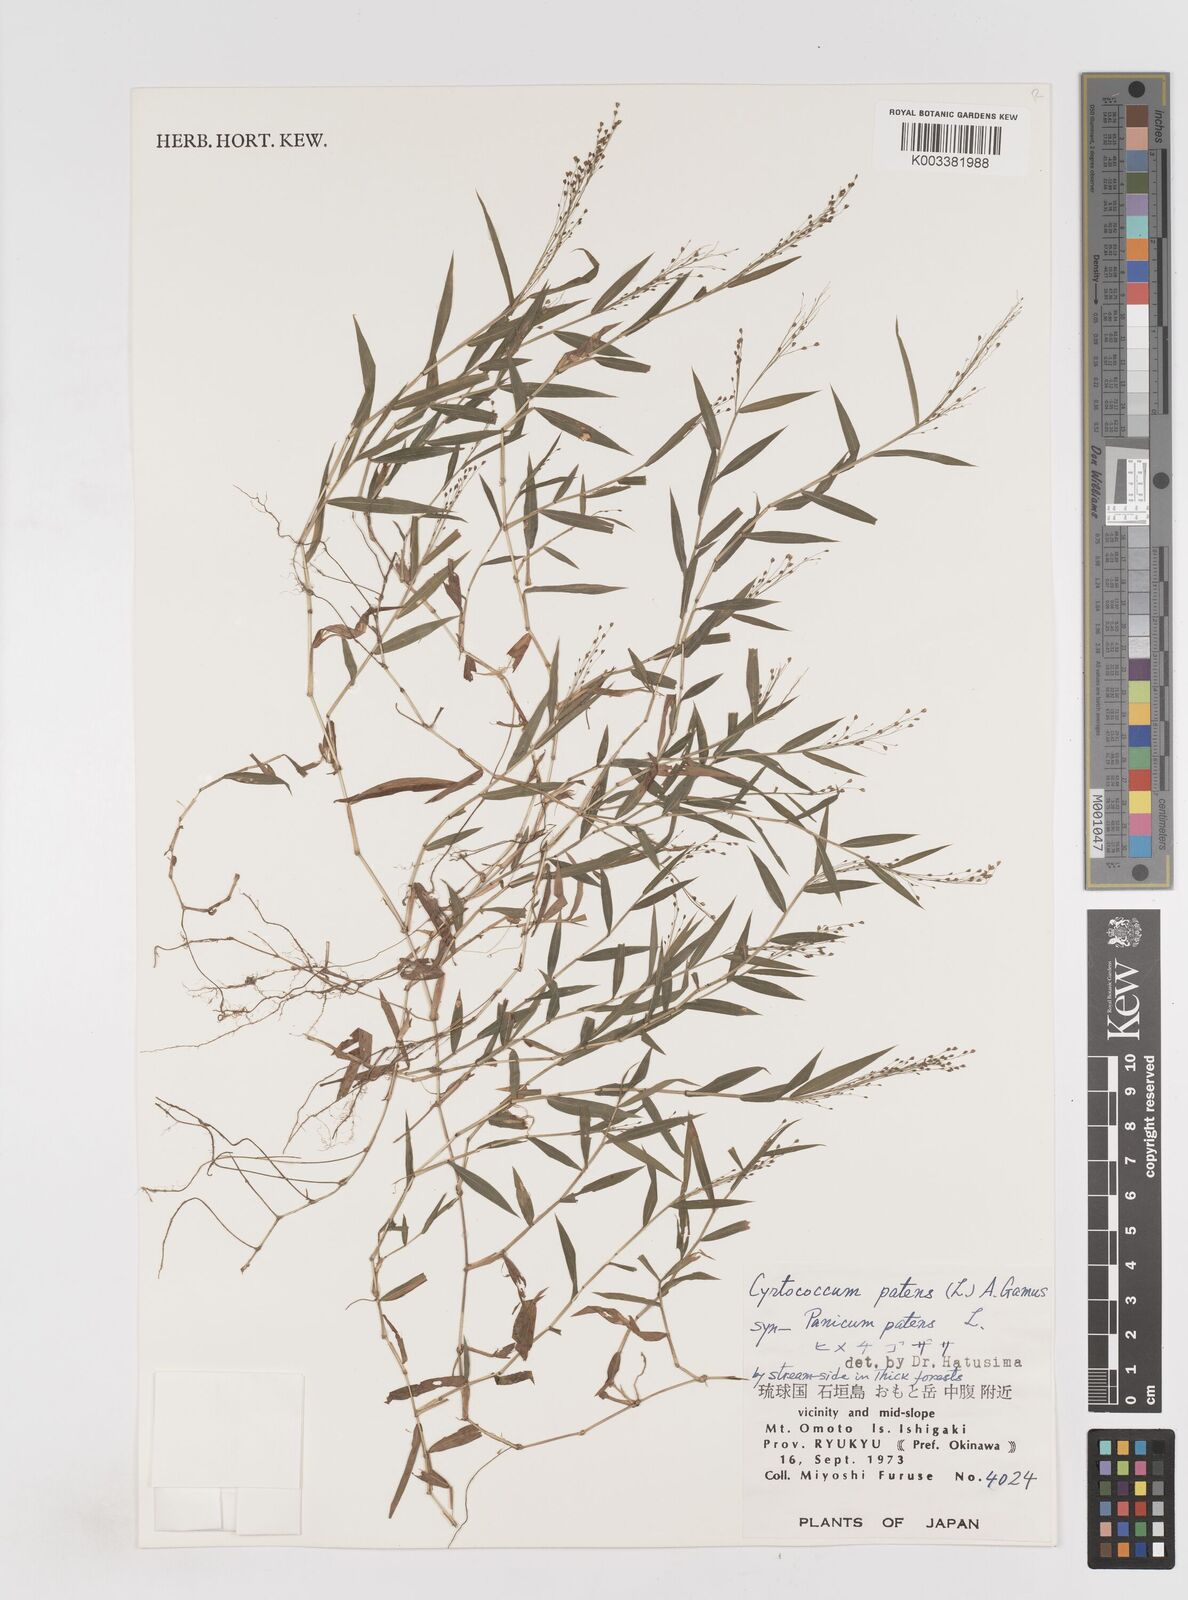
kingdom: Plantae
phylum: Tracheophyta
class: Liliopsida
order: Poales
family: Poaceae
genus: Cyrtococcum
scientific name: Cyrtococcum patens
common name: Broad-leaved bowgrass
